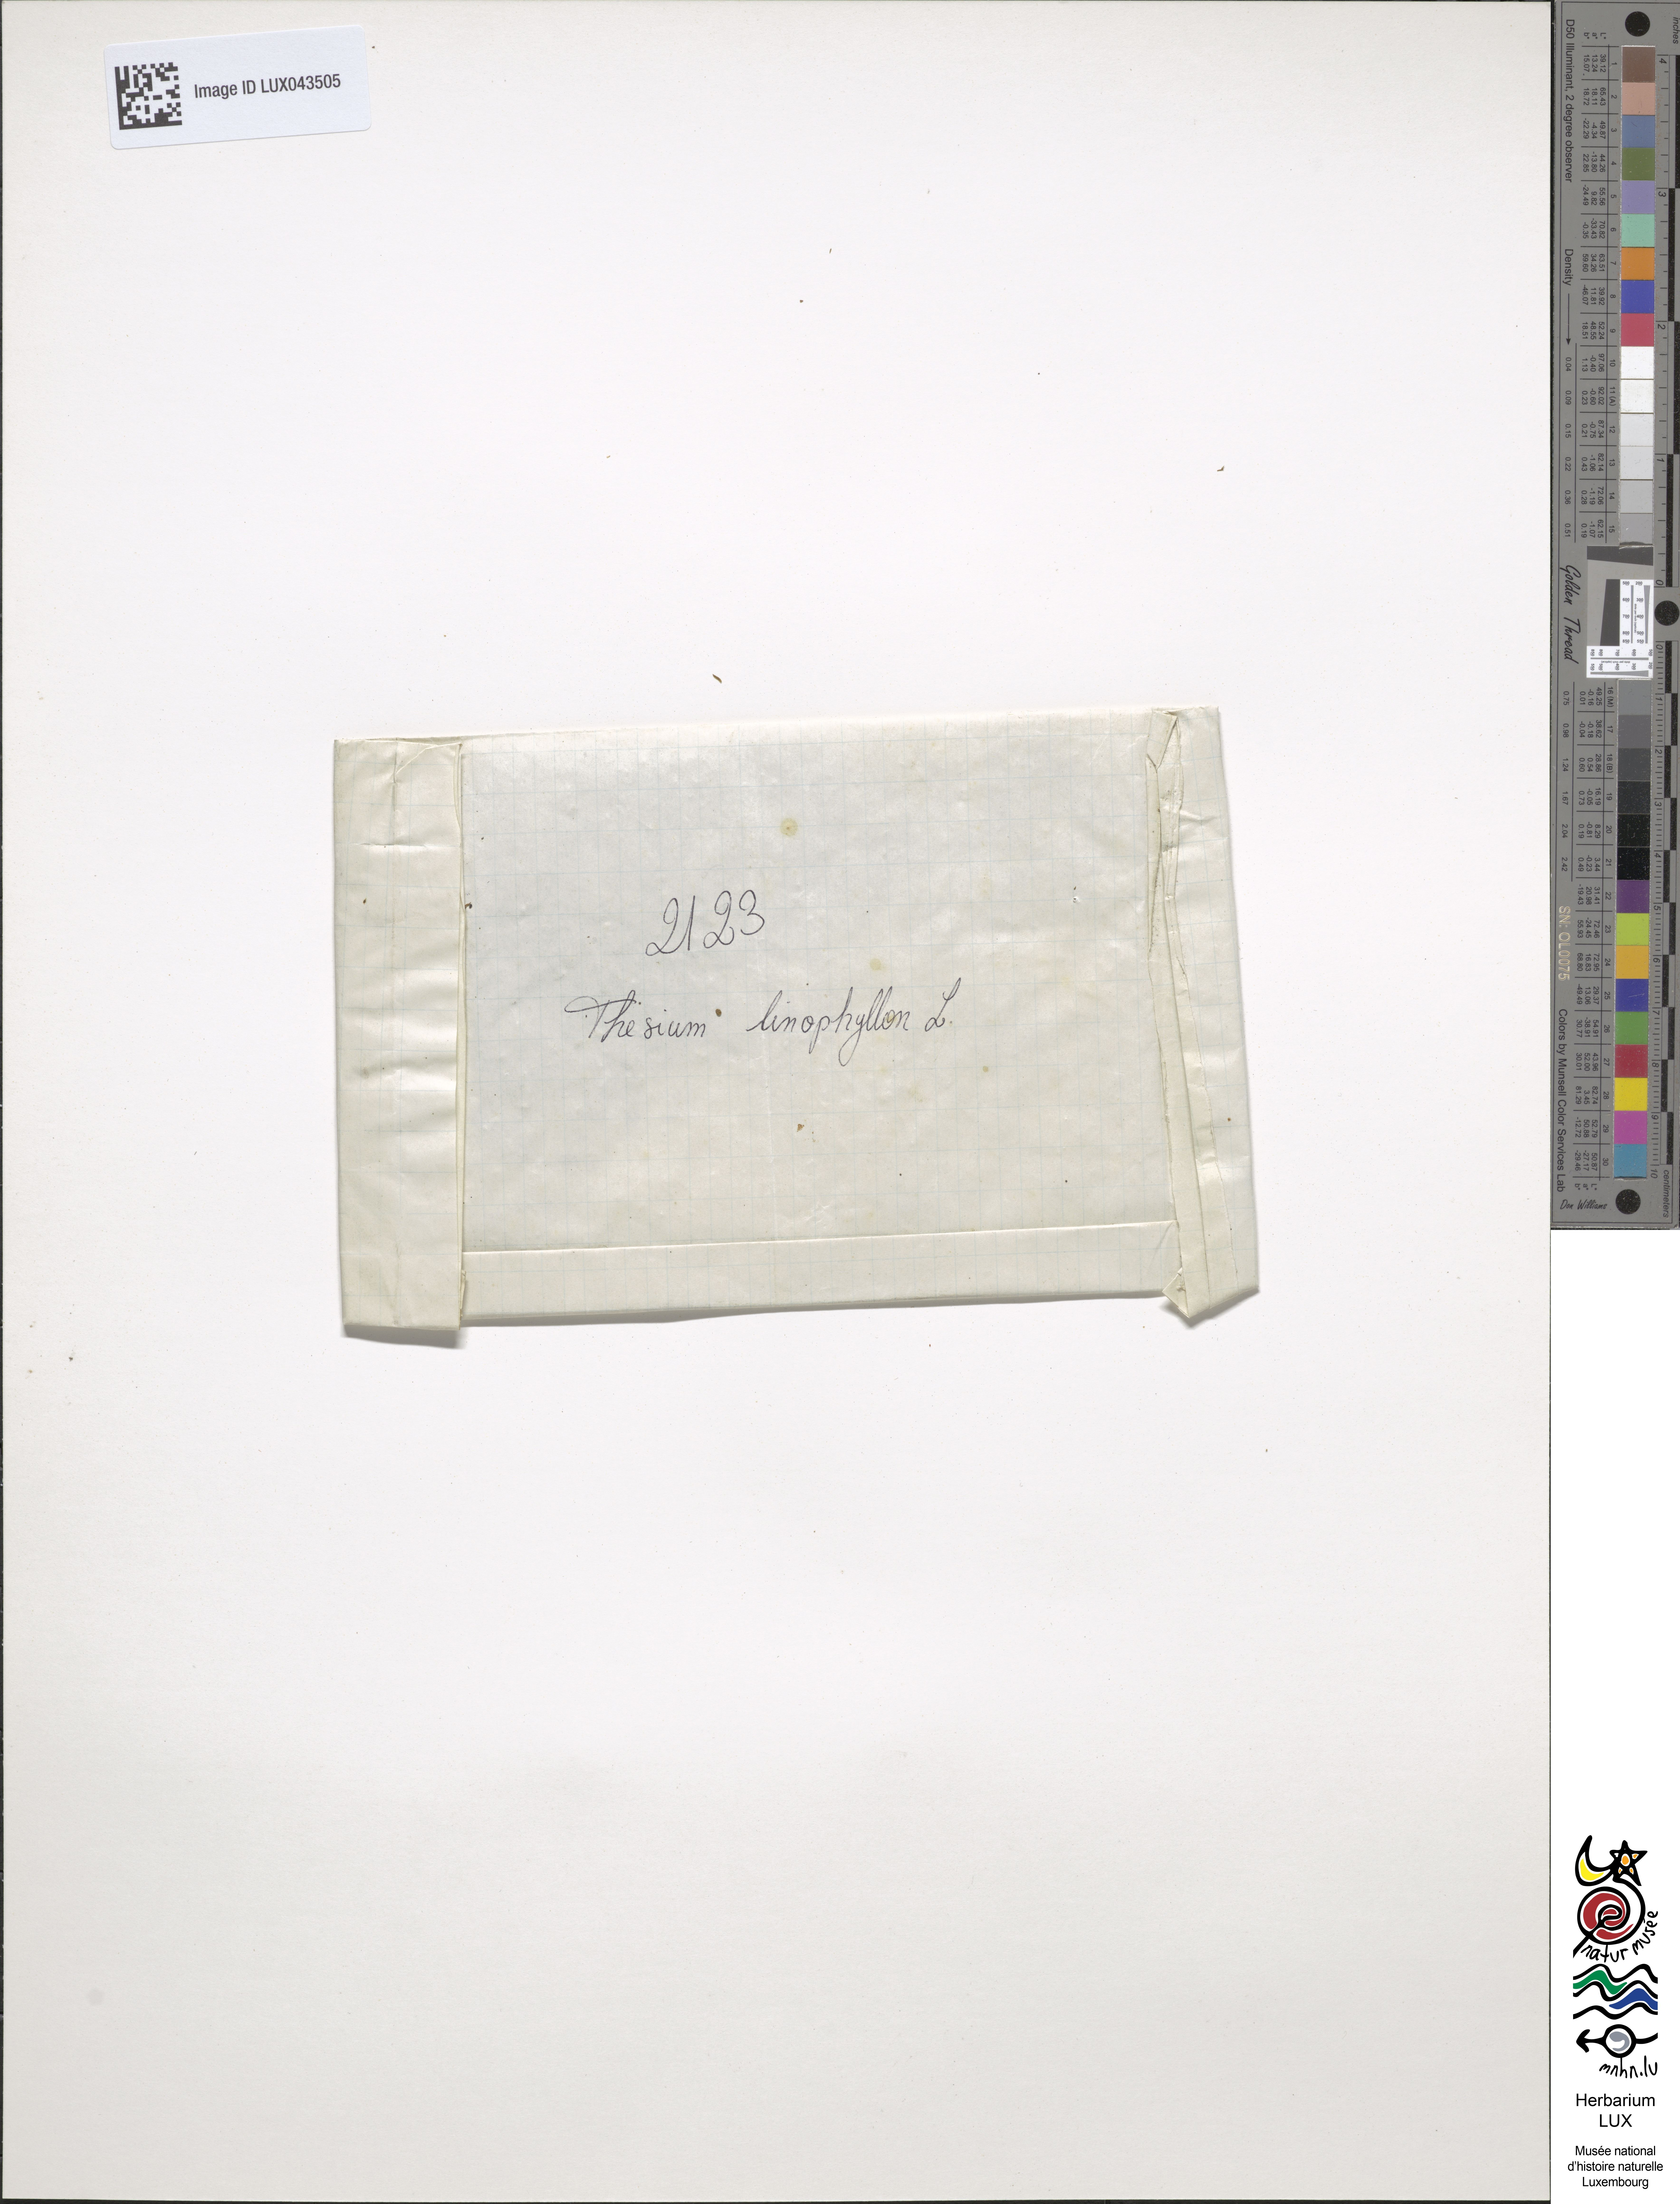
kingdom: Plantae
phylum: Tracheophyta
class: Magnoliopsida
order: Santalales
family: Thesiaceae
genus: Thesium
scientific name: Thesium linophyllon
